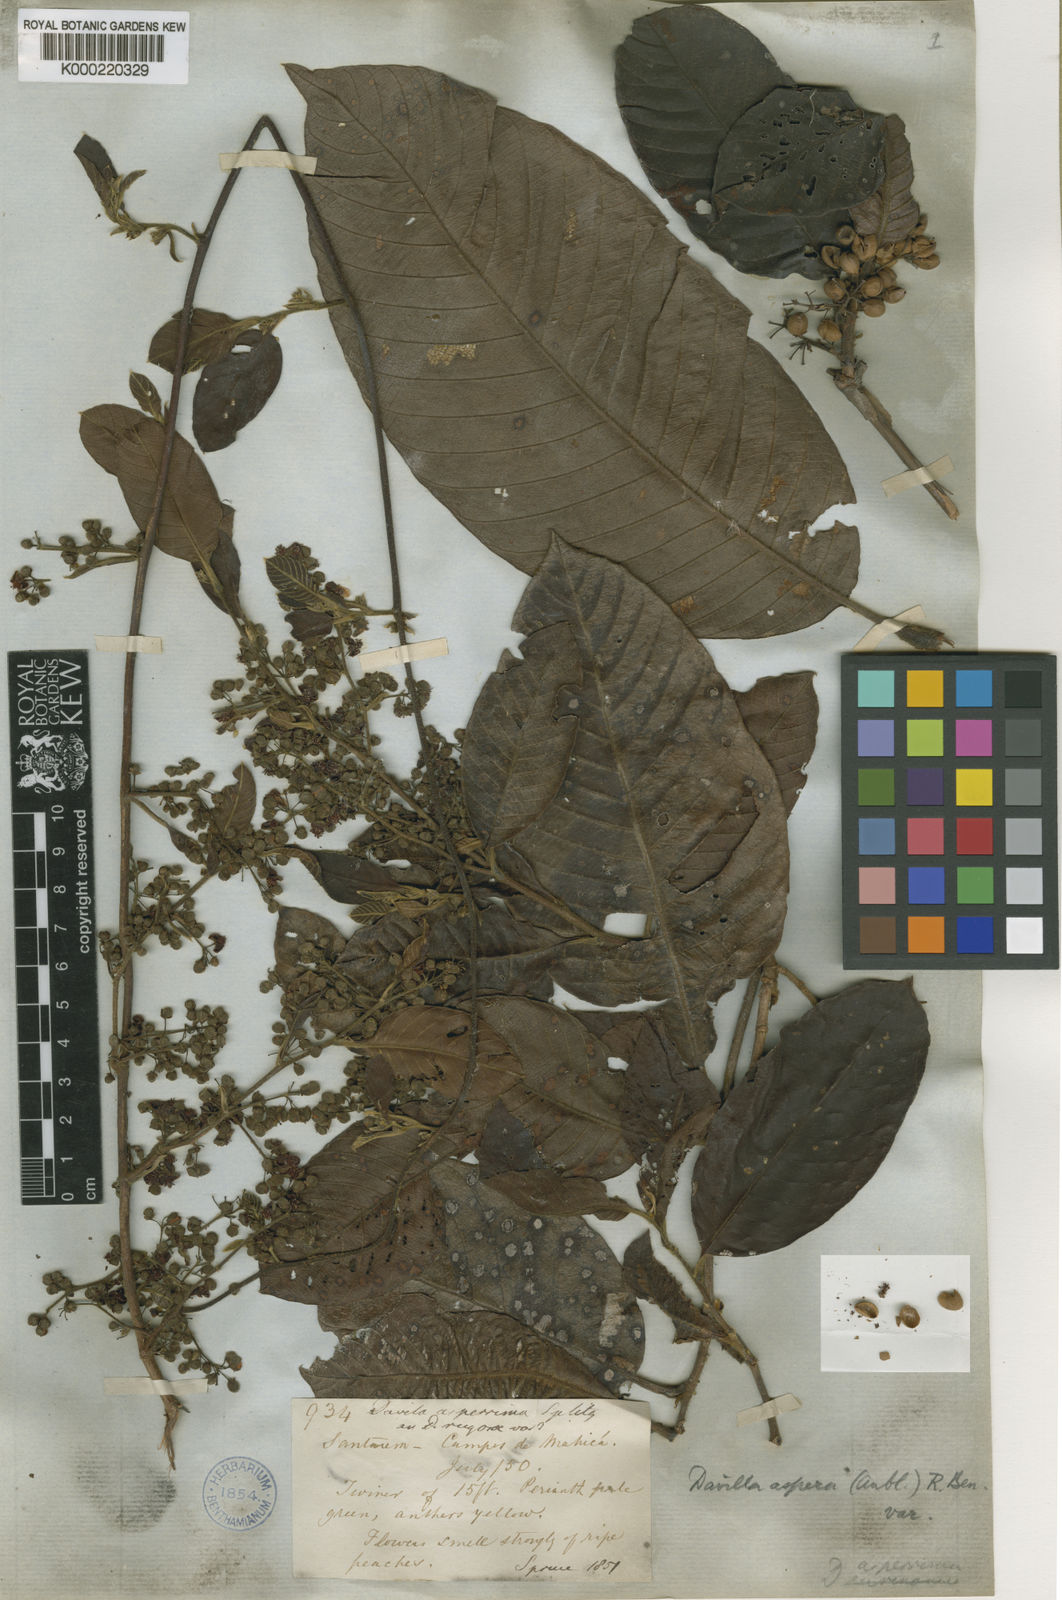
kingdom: Plantae
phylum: Tracheophyta
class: Magnoliopsida
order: Dilleniales
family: Dilleniaceae
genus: Davilla
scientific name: Davilla kunthii
